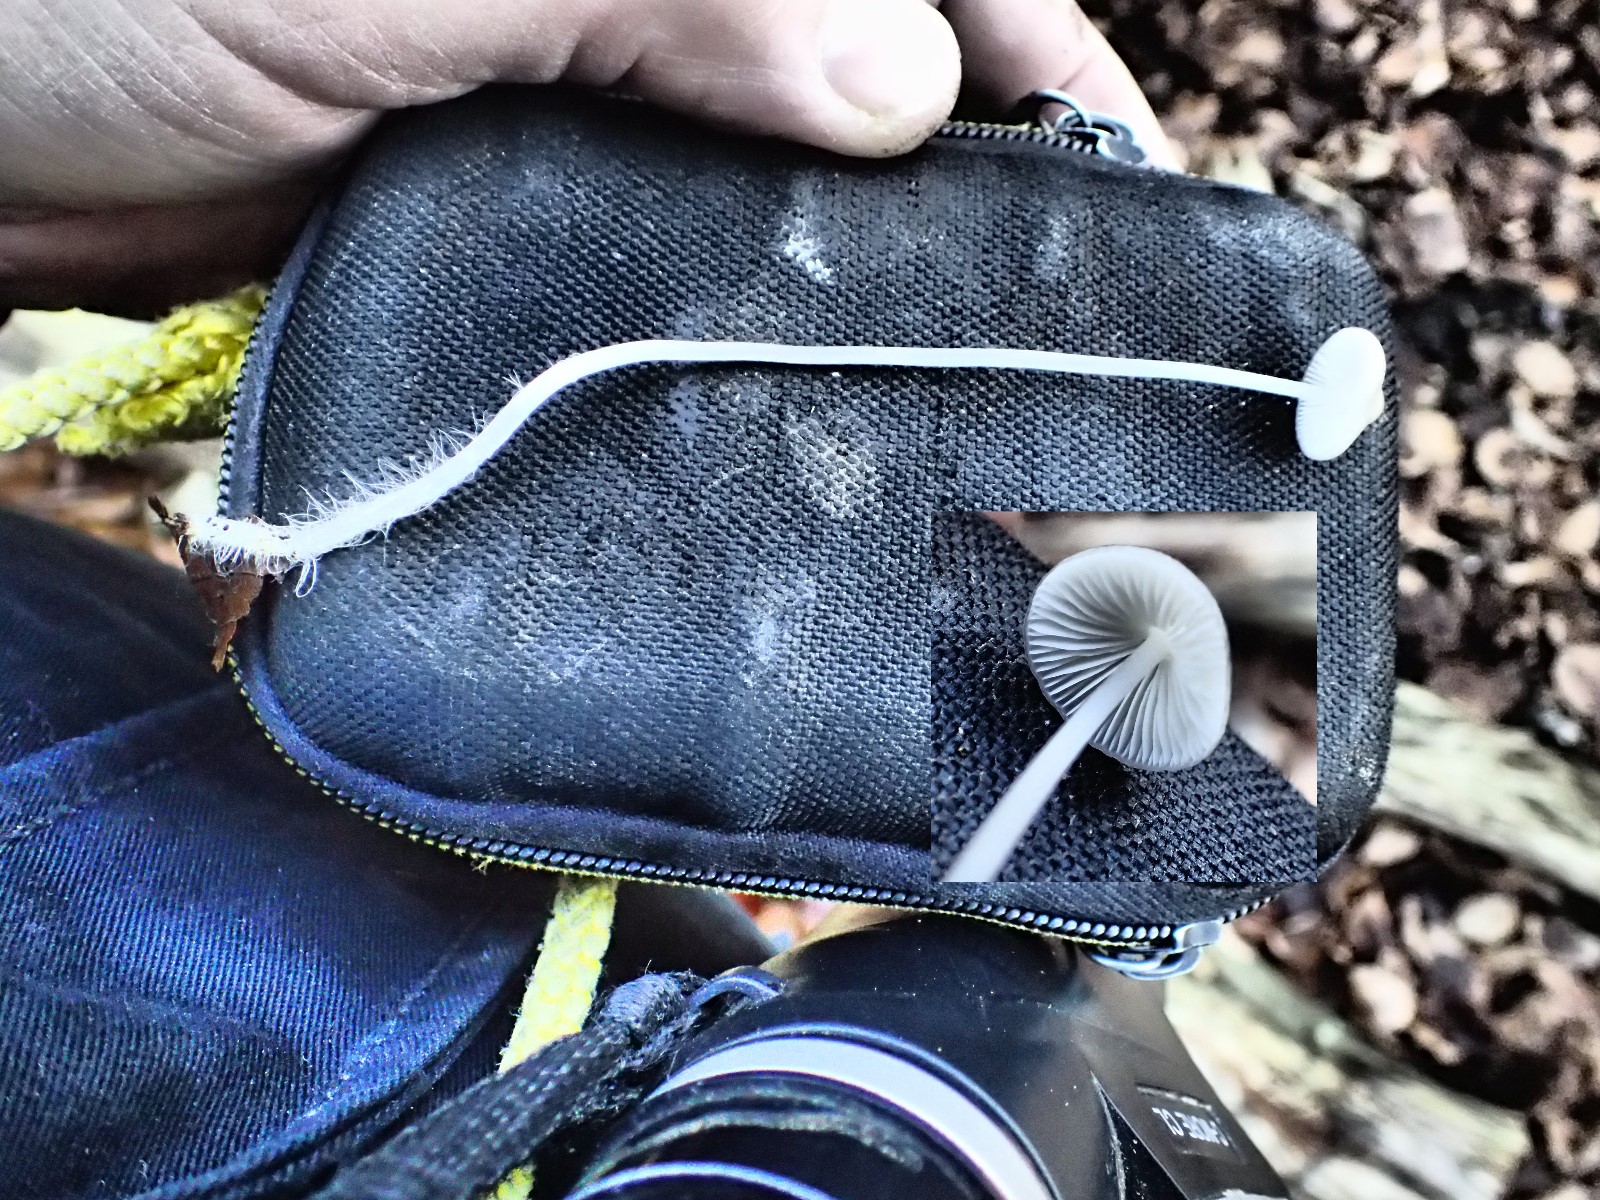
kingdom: Fungi
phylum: Basidiomycota
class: Agaricomycetes
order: Agaricales
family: Mycenaceae
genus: Mycena
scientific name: Mycena vitilis
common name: blankstokket huesvamp
